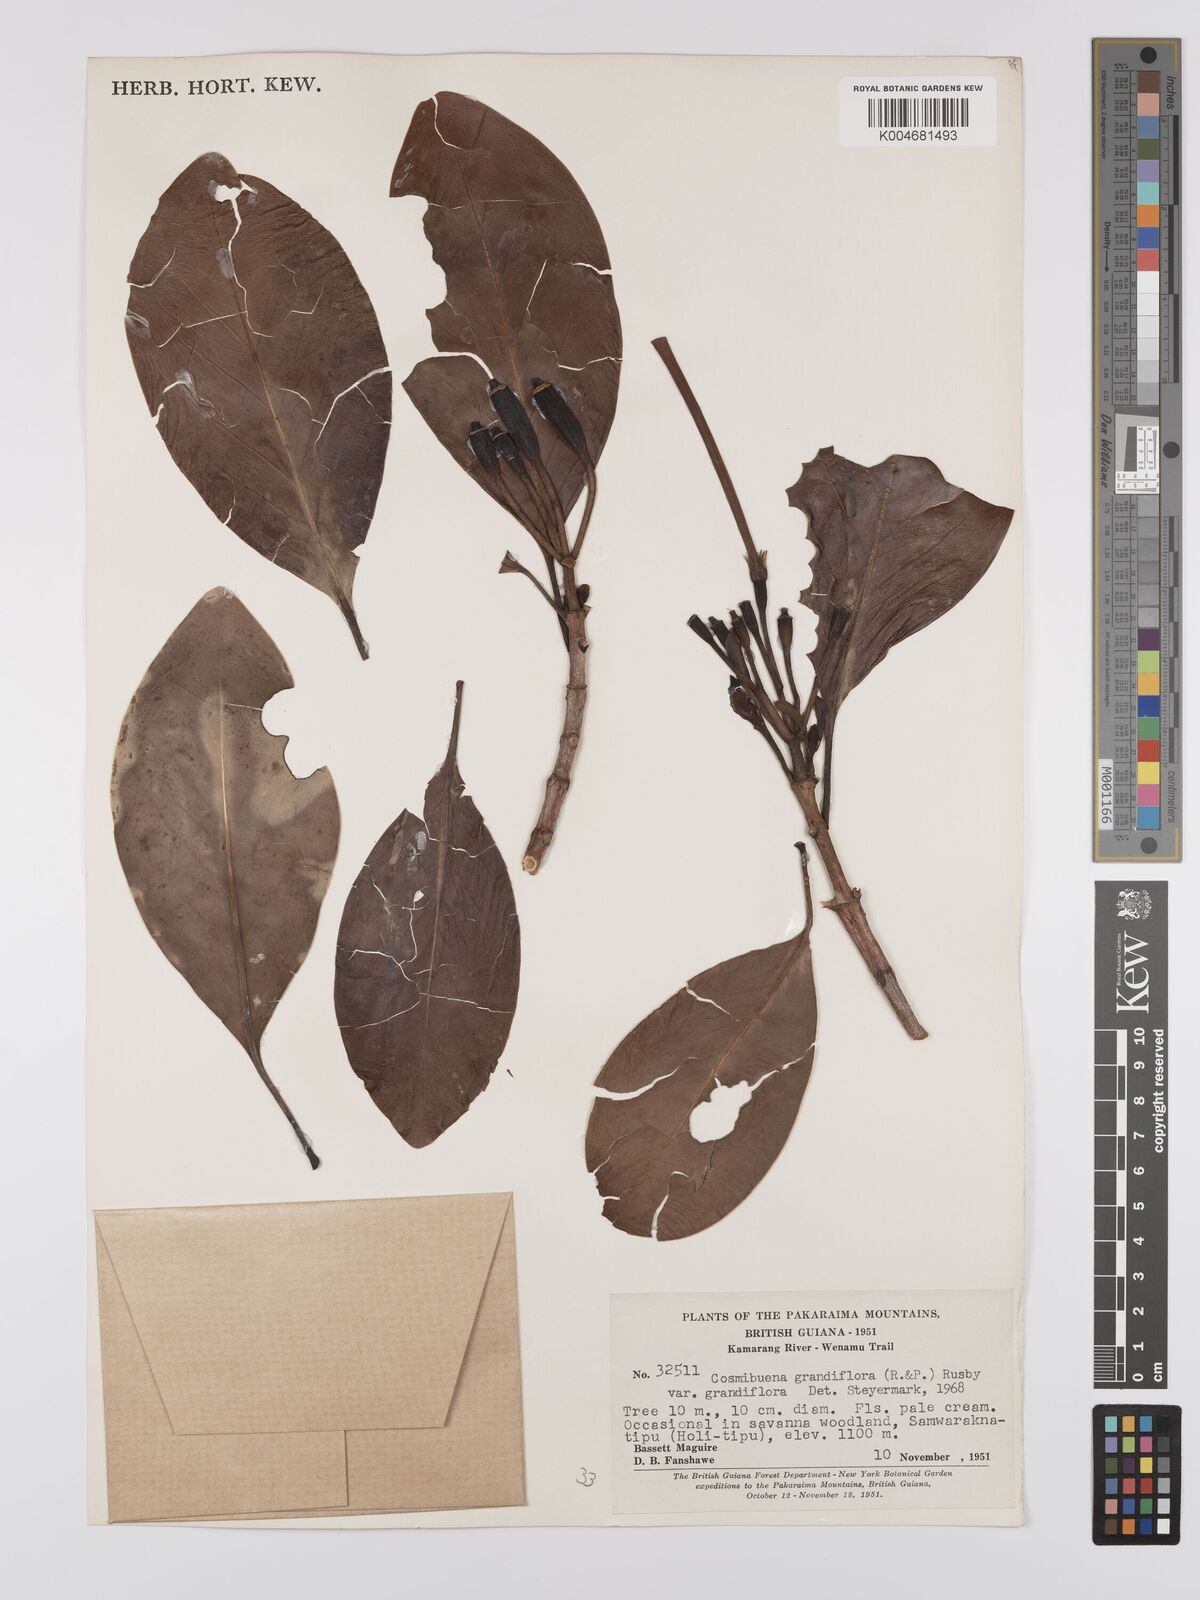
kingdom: Plantae
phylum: Tracheophyta
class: Magnoliopsida
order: Gentianales
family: Rubiaceae
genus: Cosmibuena
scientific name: Cosmibuena grandiflora
